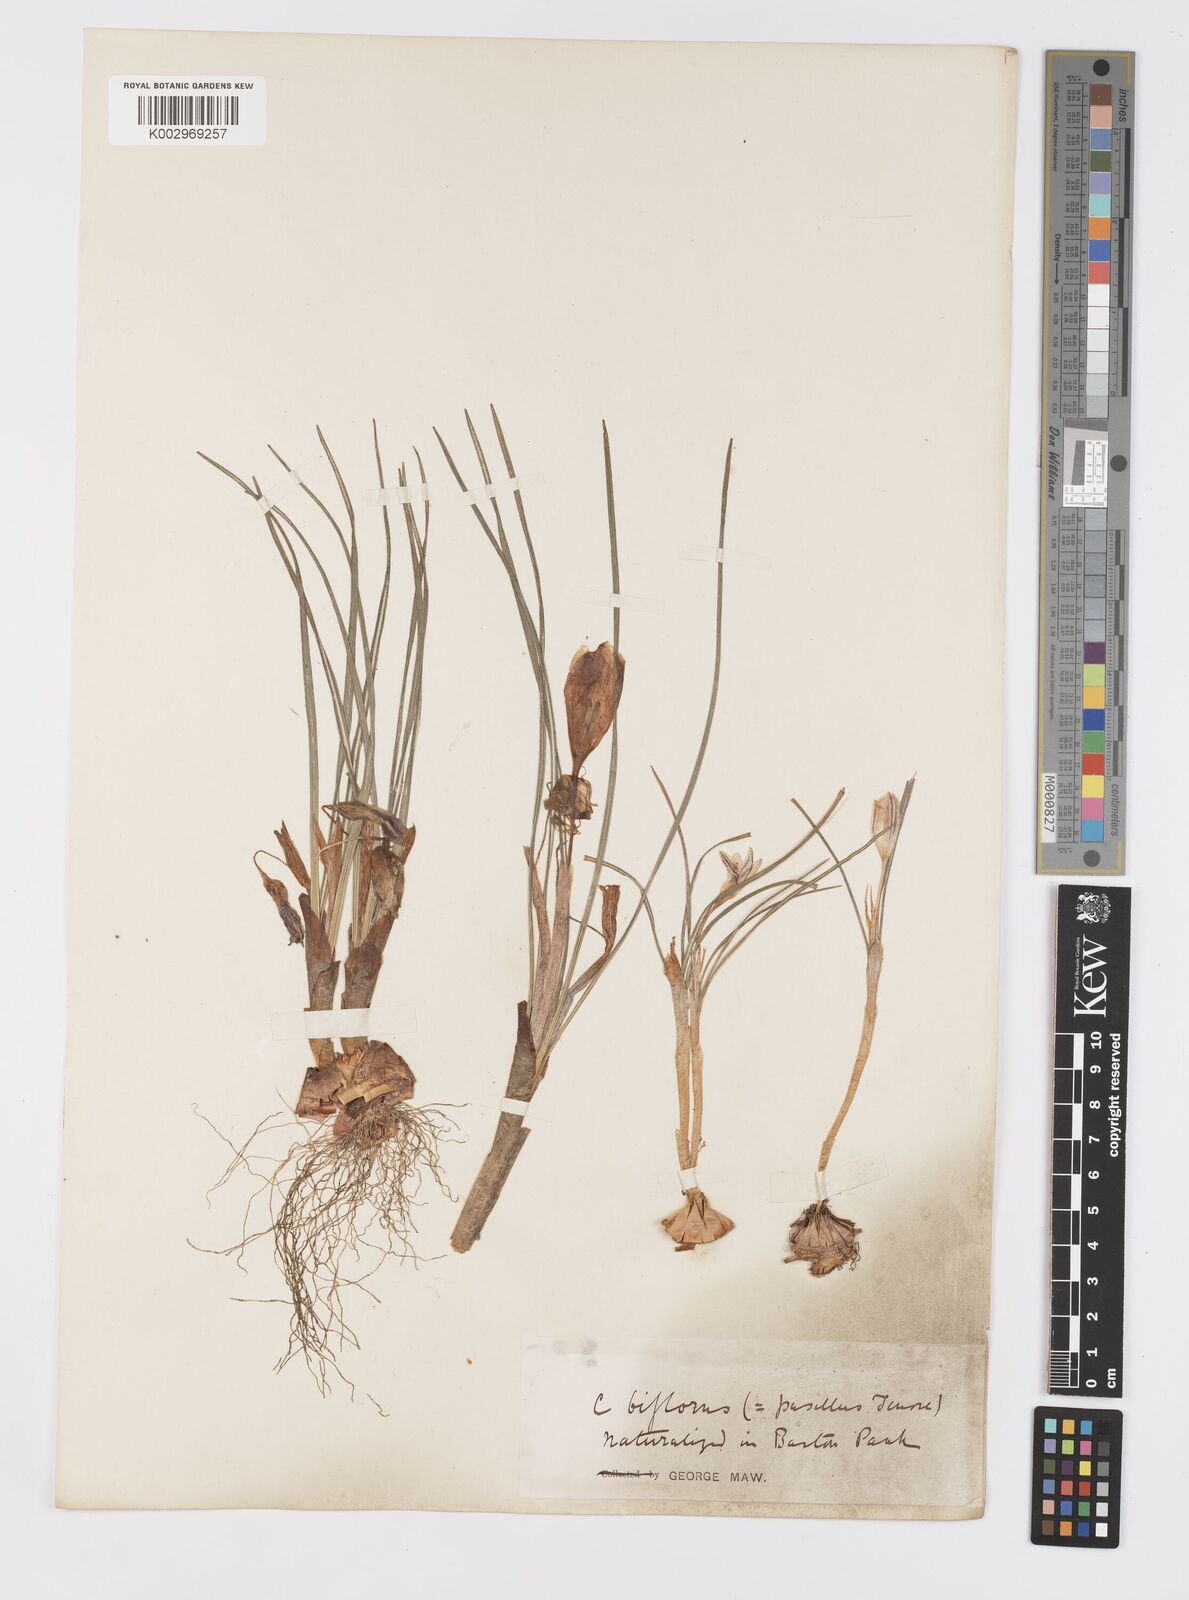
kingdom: Plantae
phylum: Tracheophyta
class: Liliopsida
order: Asparagales
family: Iridaceae
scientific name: Iridaceae
